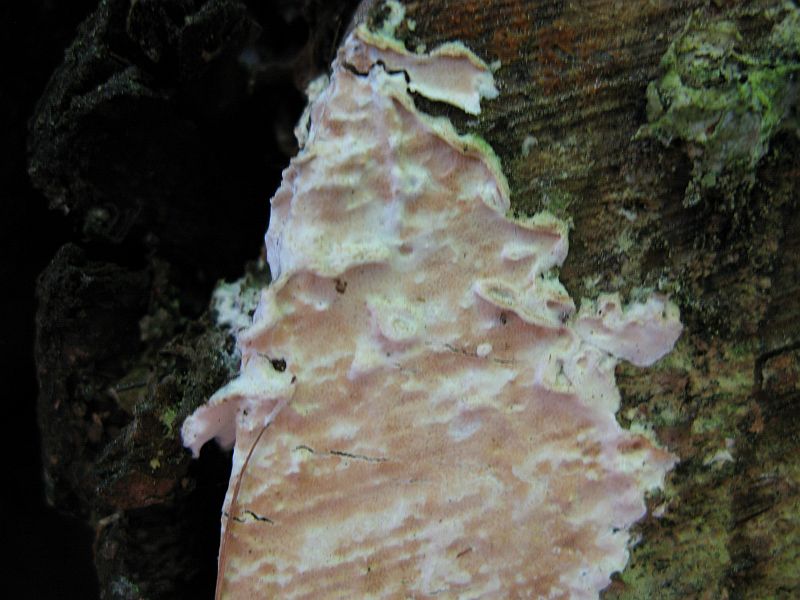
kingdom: Fungi
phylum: Basidiomycota
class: Agaricomycetes
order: Polyporales
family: Irpicaceae
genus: Byssomerulius
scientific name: Byssomerulius corium
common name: læder-åresvamp
